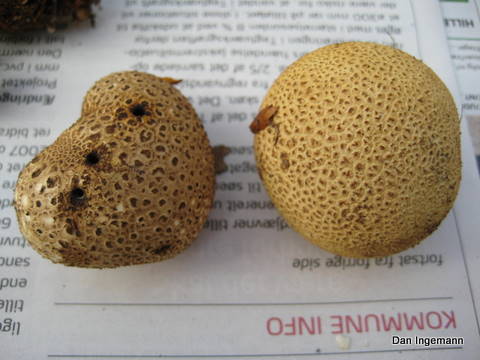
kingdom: Fungi
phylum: Basidiomycota
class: Agaricomycetes
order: Boletales
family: Sclerodermataceae
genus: Scleroderma
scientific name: Scleroderma citrinum
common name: almindelig bruskbold
